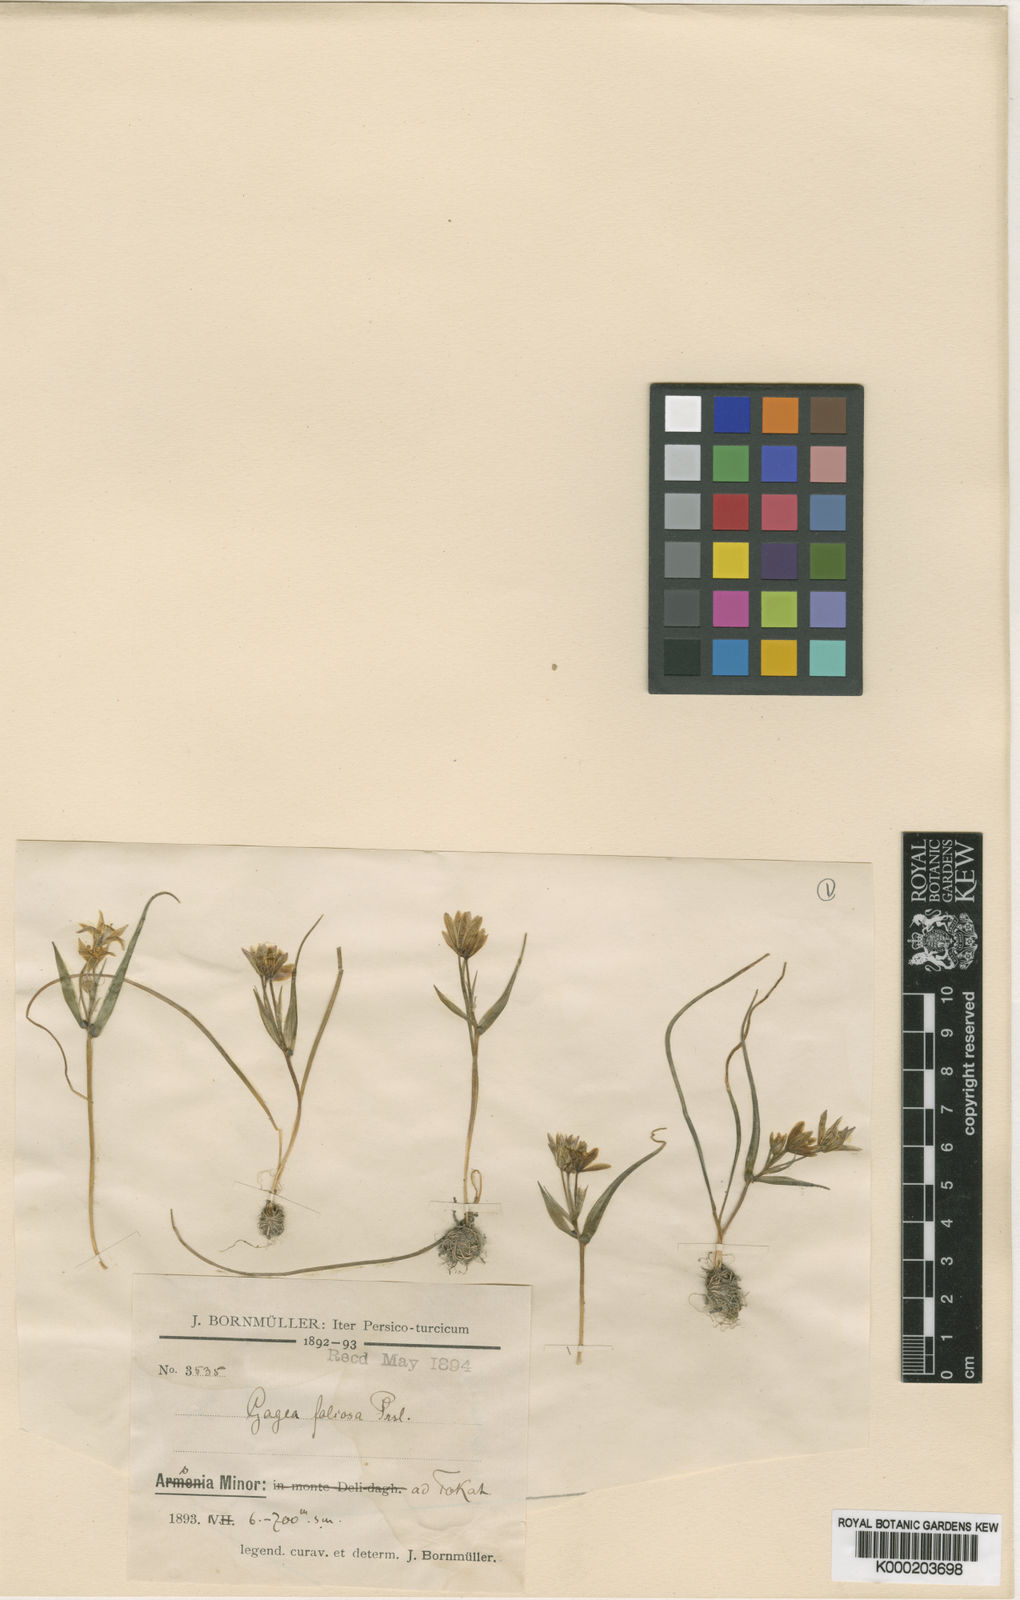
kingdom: Plantae
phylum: Tracheophyta
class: Liliopsida
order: Liliales
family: Liliaceae
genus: Gagea
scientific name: Gagea dubia
